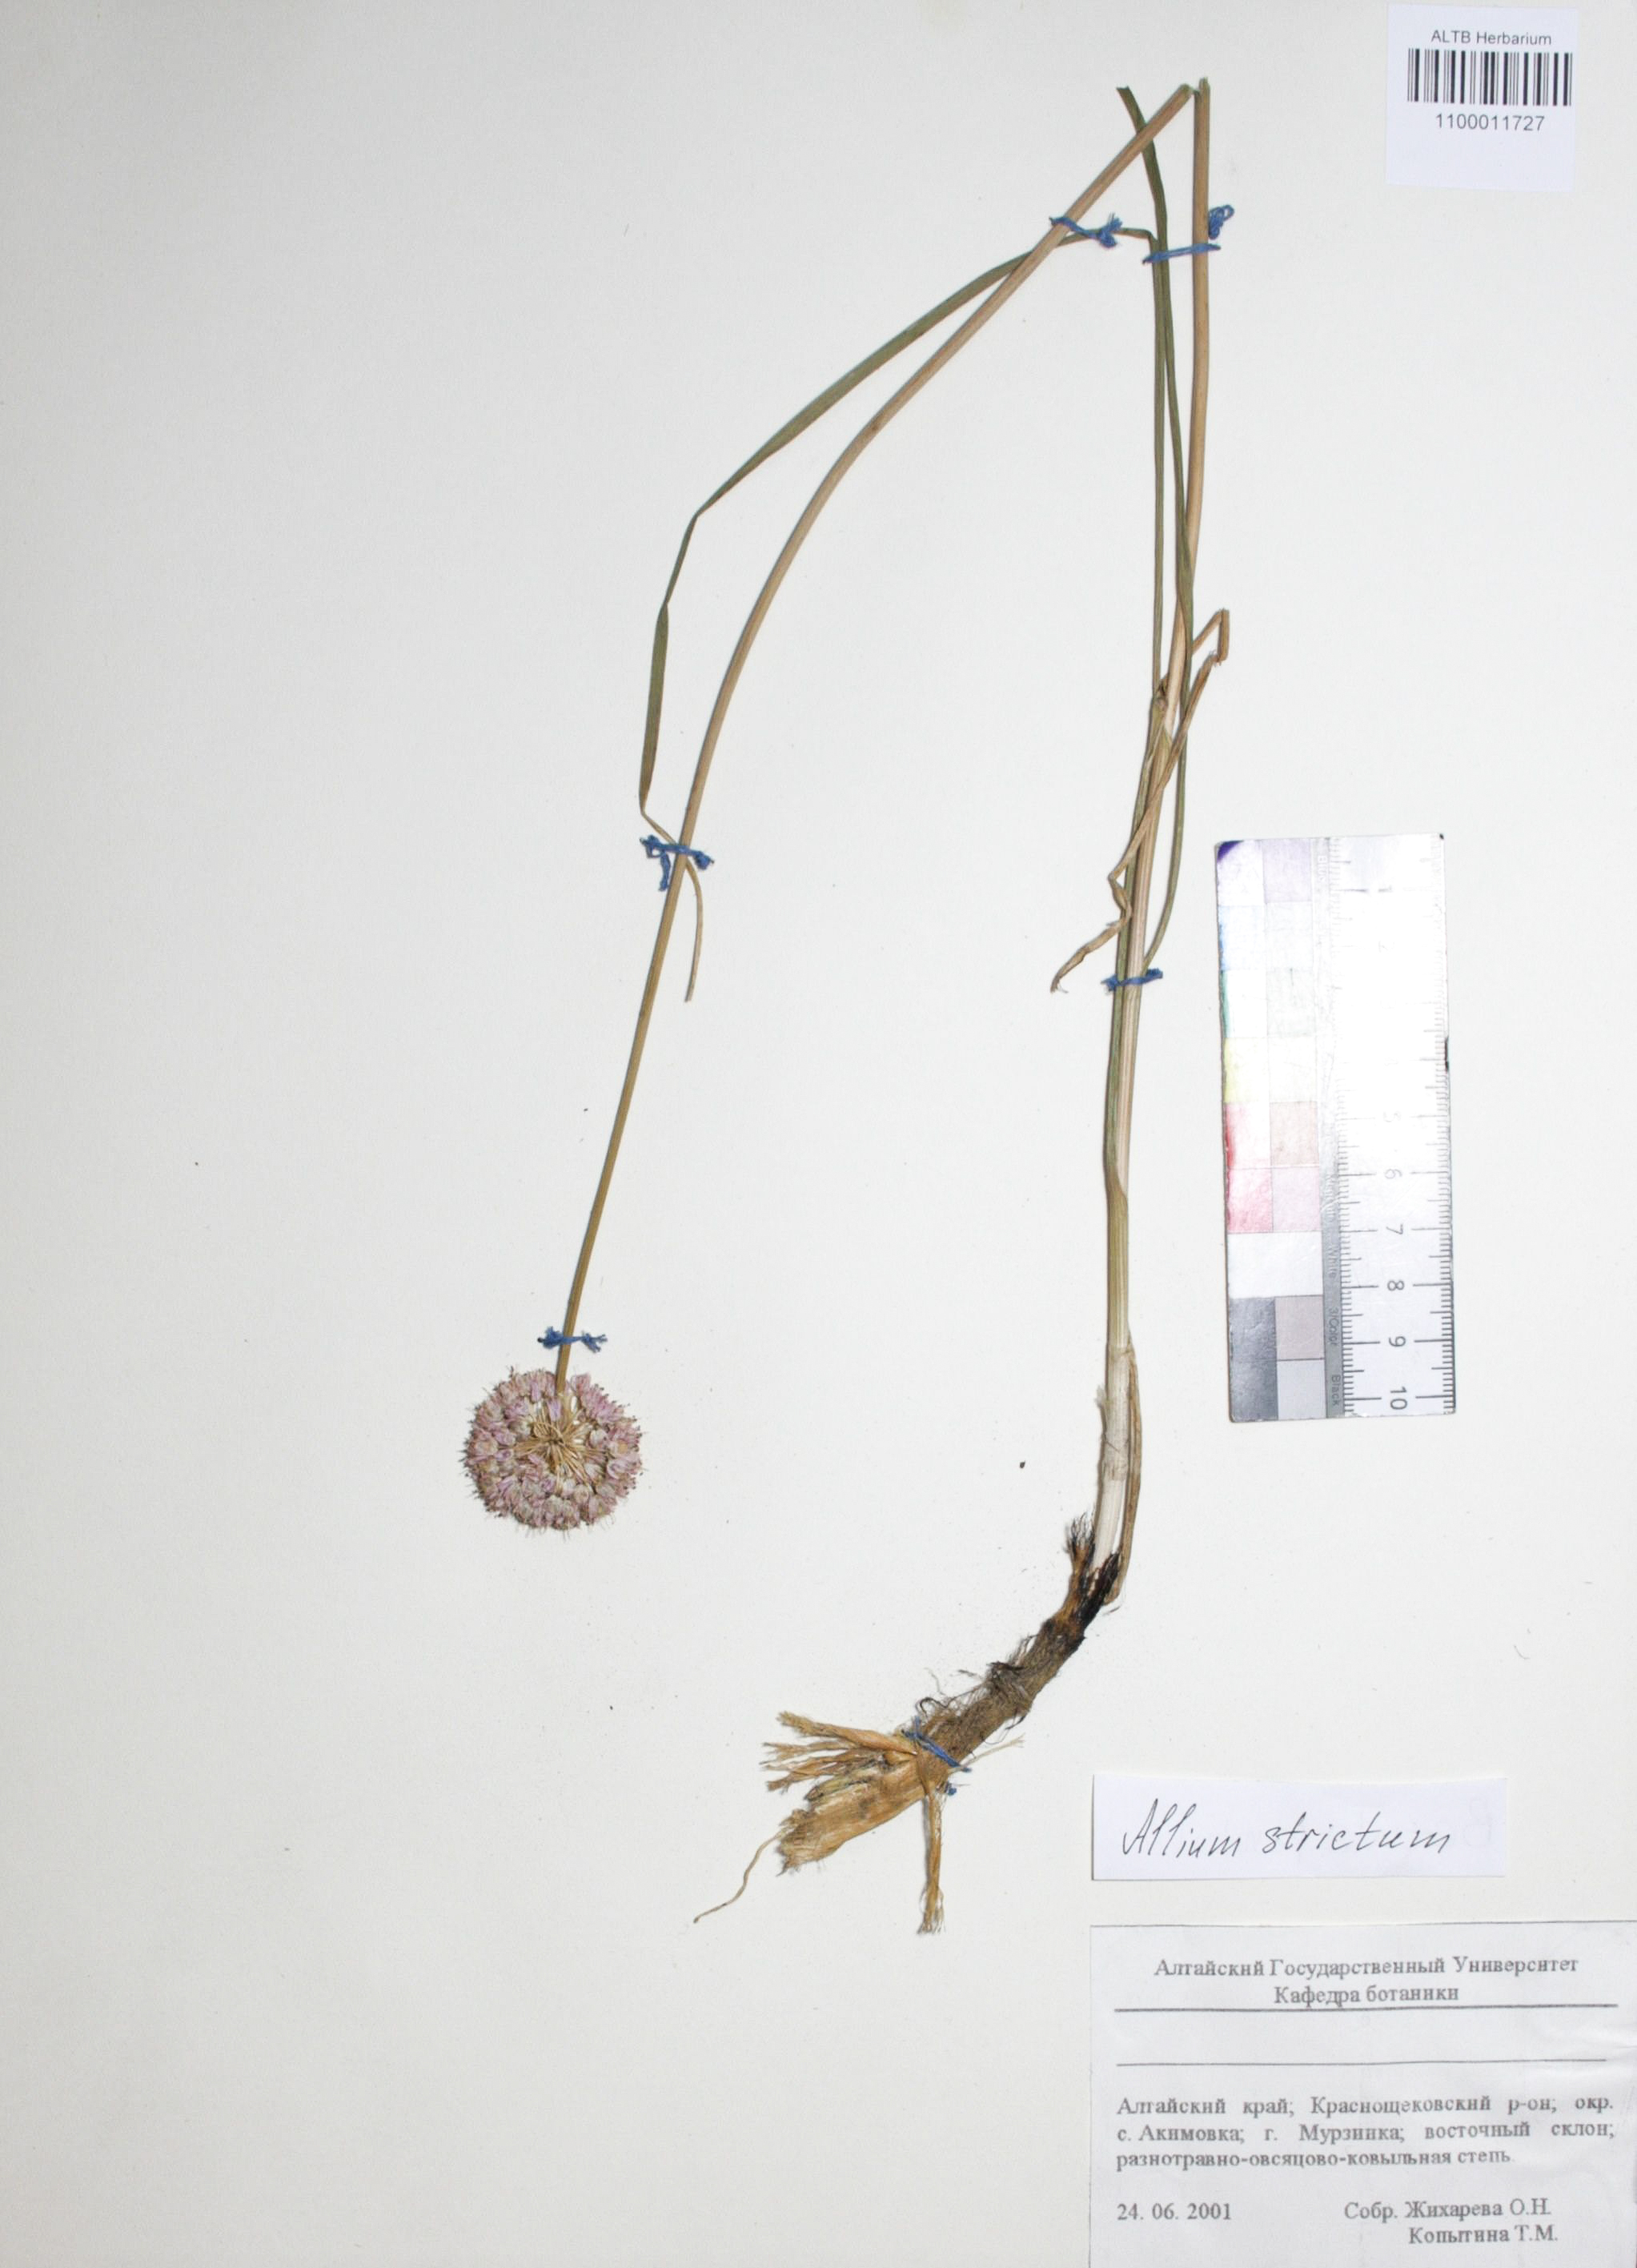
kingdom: Plantae
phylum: Tracheophyta
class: Liliopsida
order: Asparagales
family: Amaryllidaceae
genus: Allium
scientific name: Allium strictum
